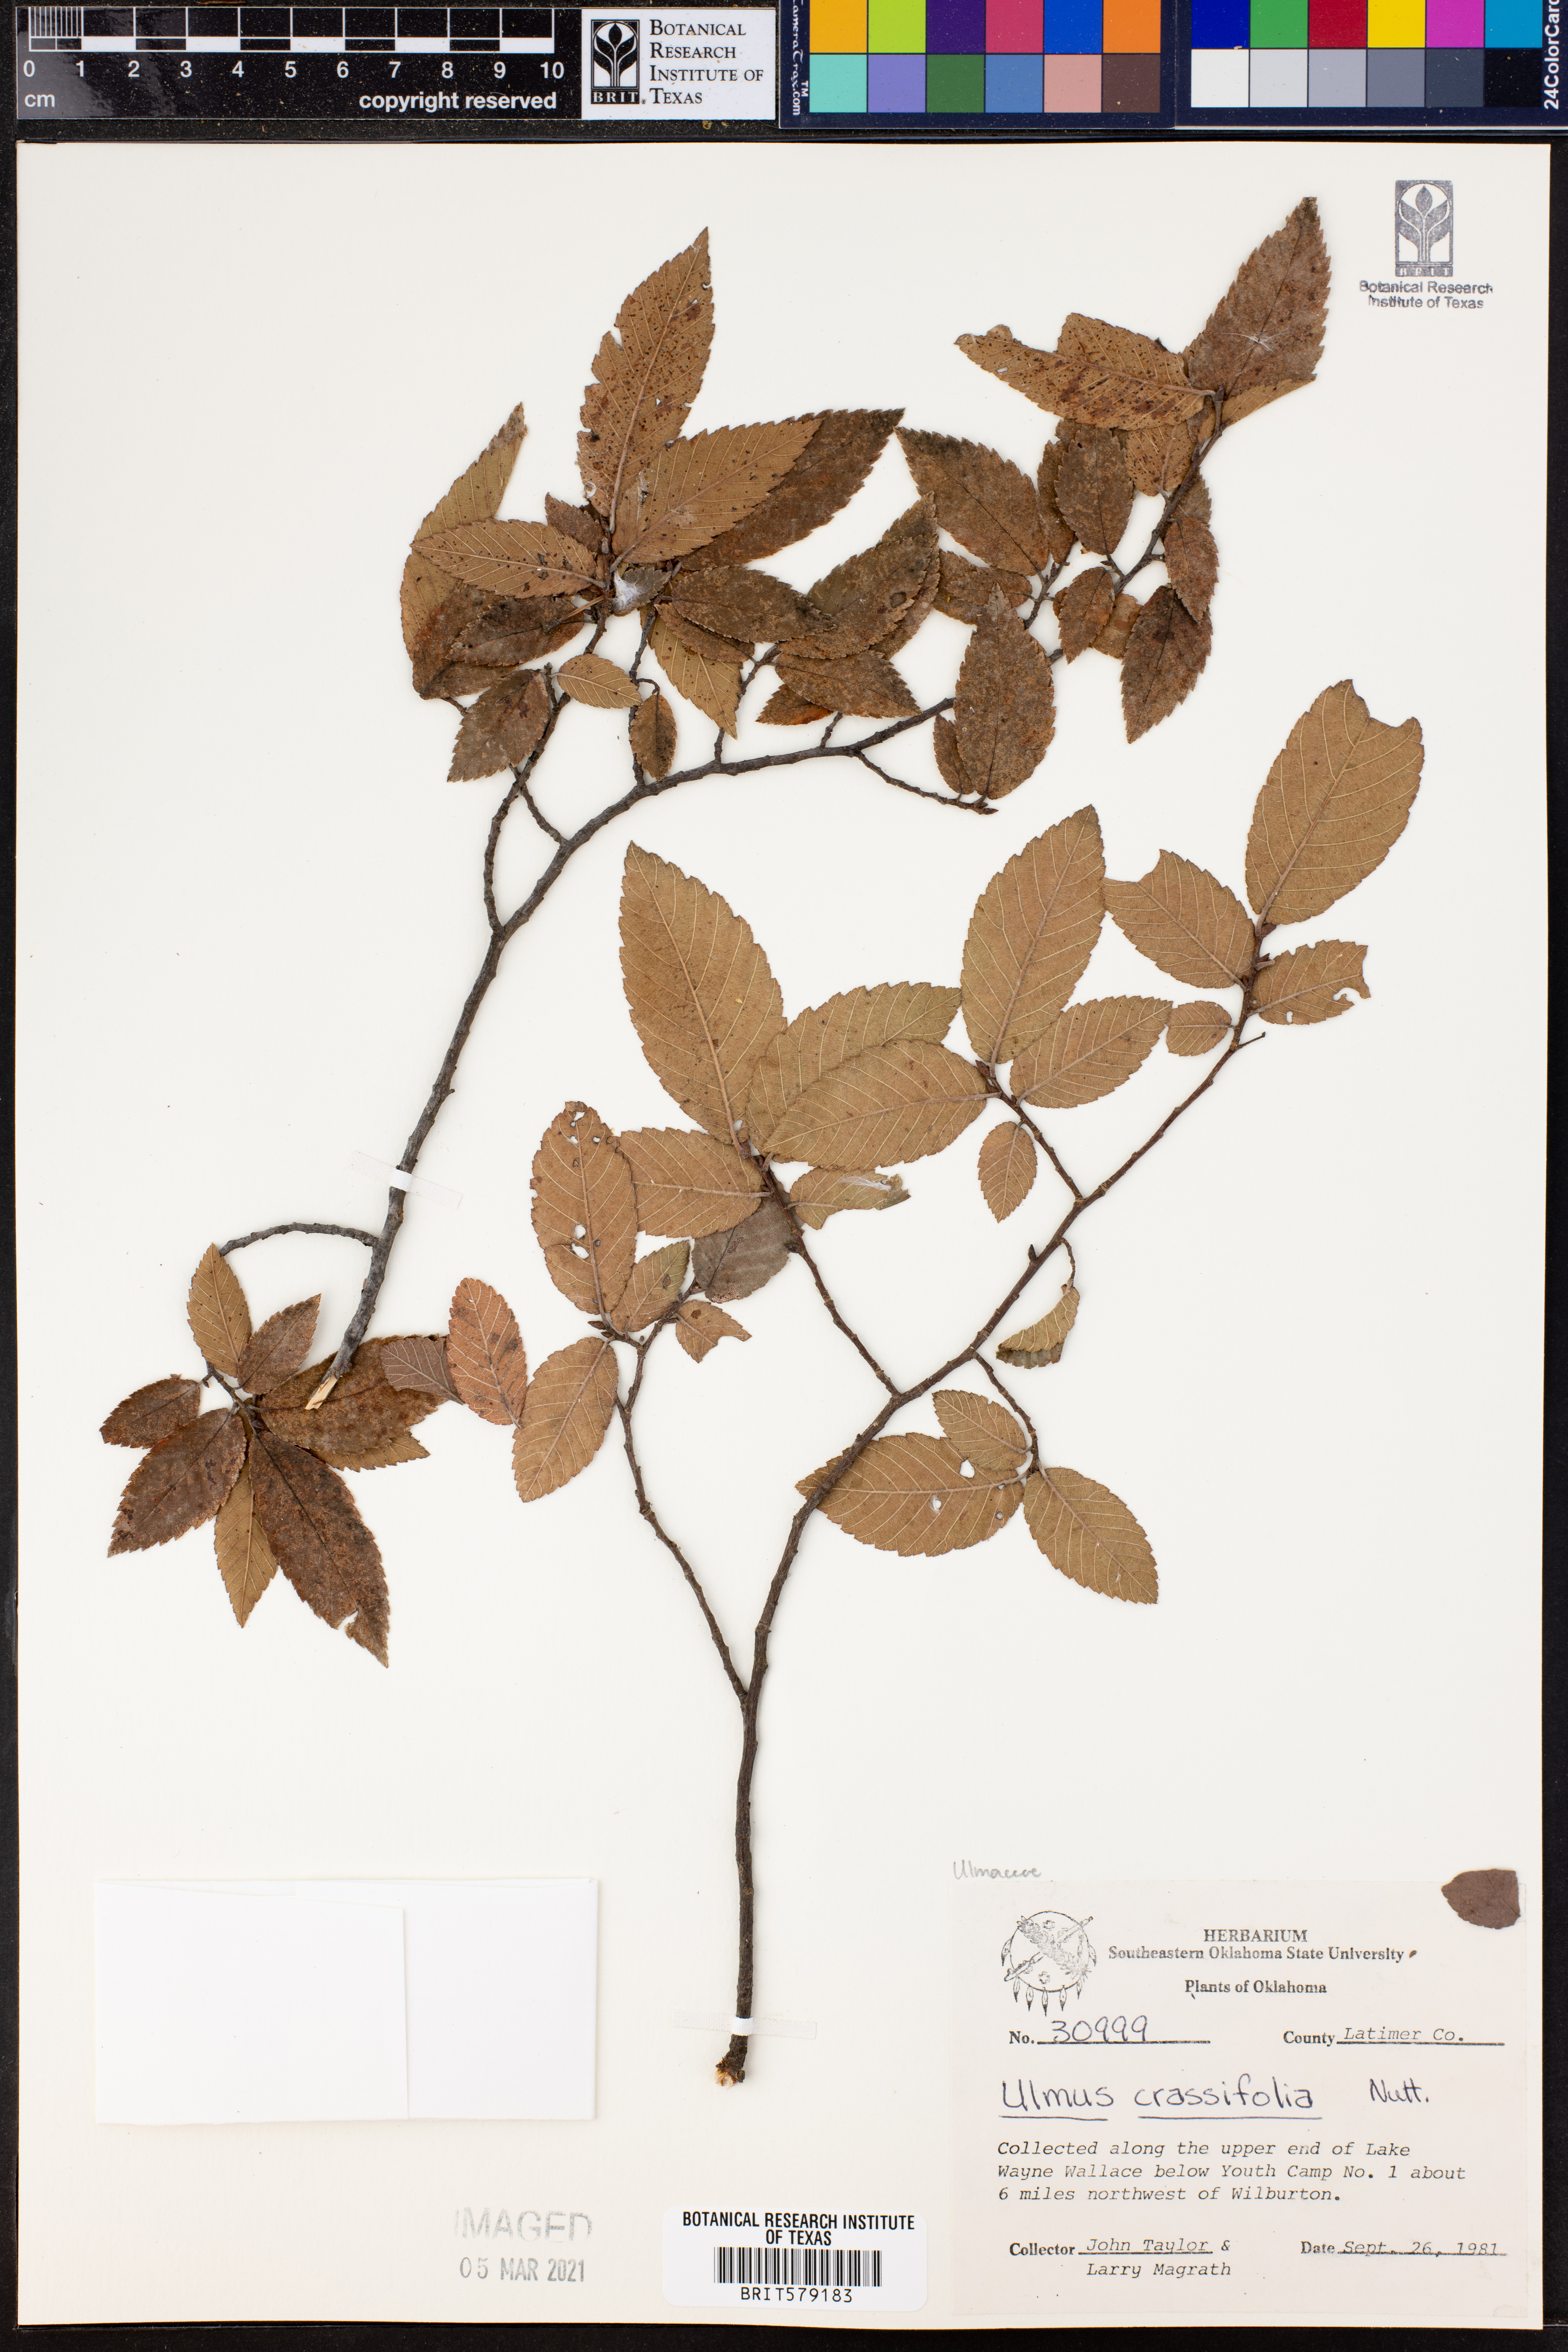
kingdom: Plantae
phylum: Tracheophyta
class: Magnoliopsida
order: Rosales
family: Ulmaceae
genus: Ulmus
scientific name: Ulmus crassifolia
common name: Basket elm
